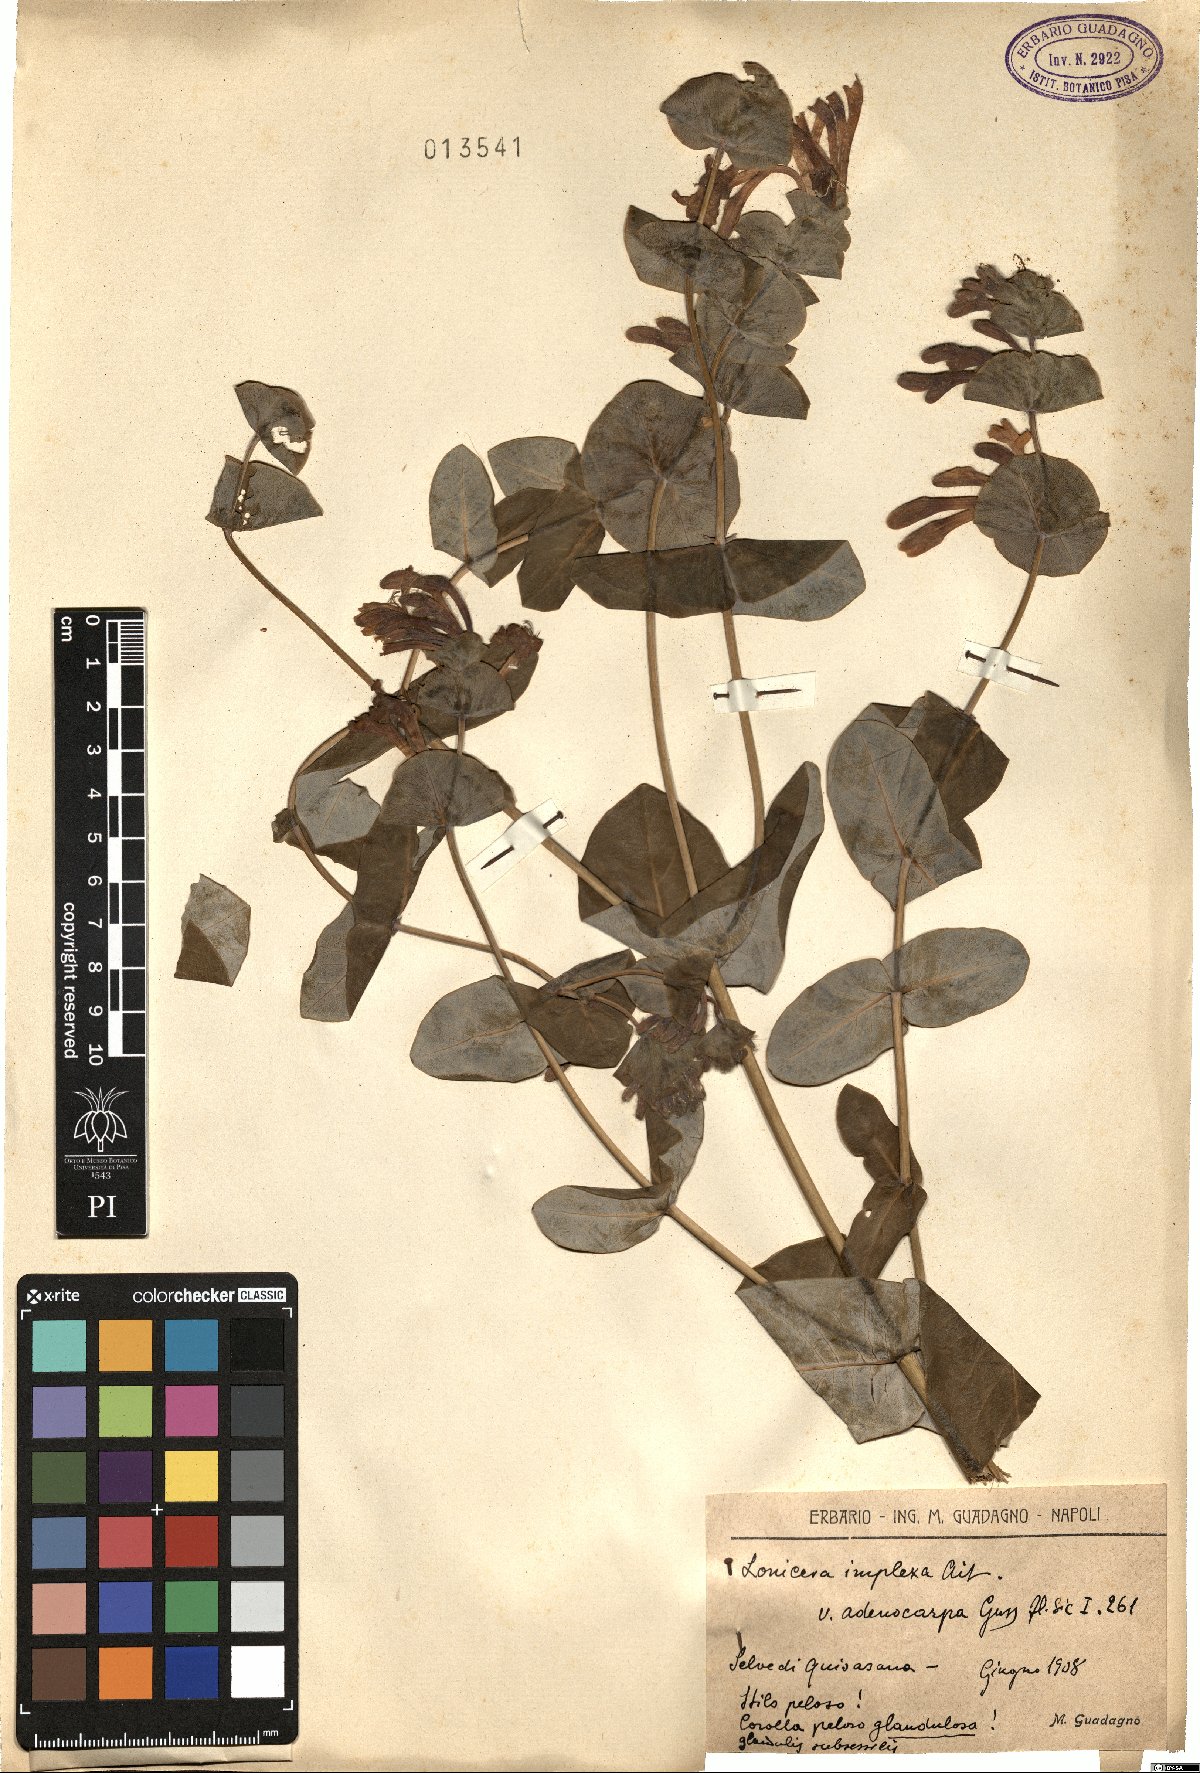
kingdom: Plantae
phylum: Tracheophyta
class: Magnoliopsida
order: Dipsacales
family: Caprifoliaceae
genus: Lonicera
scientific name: Lonicera implexa
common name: Minorca honeysuckle
